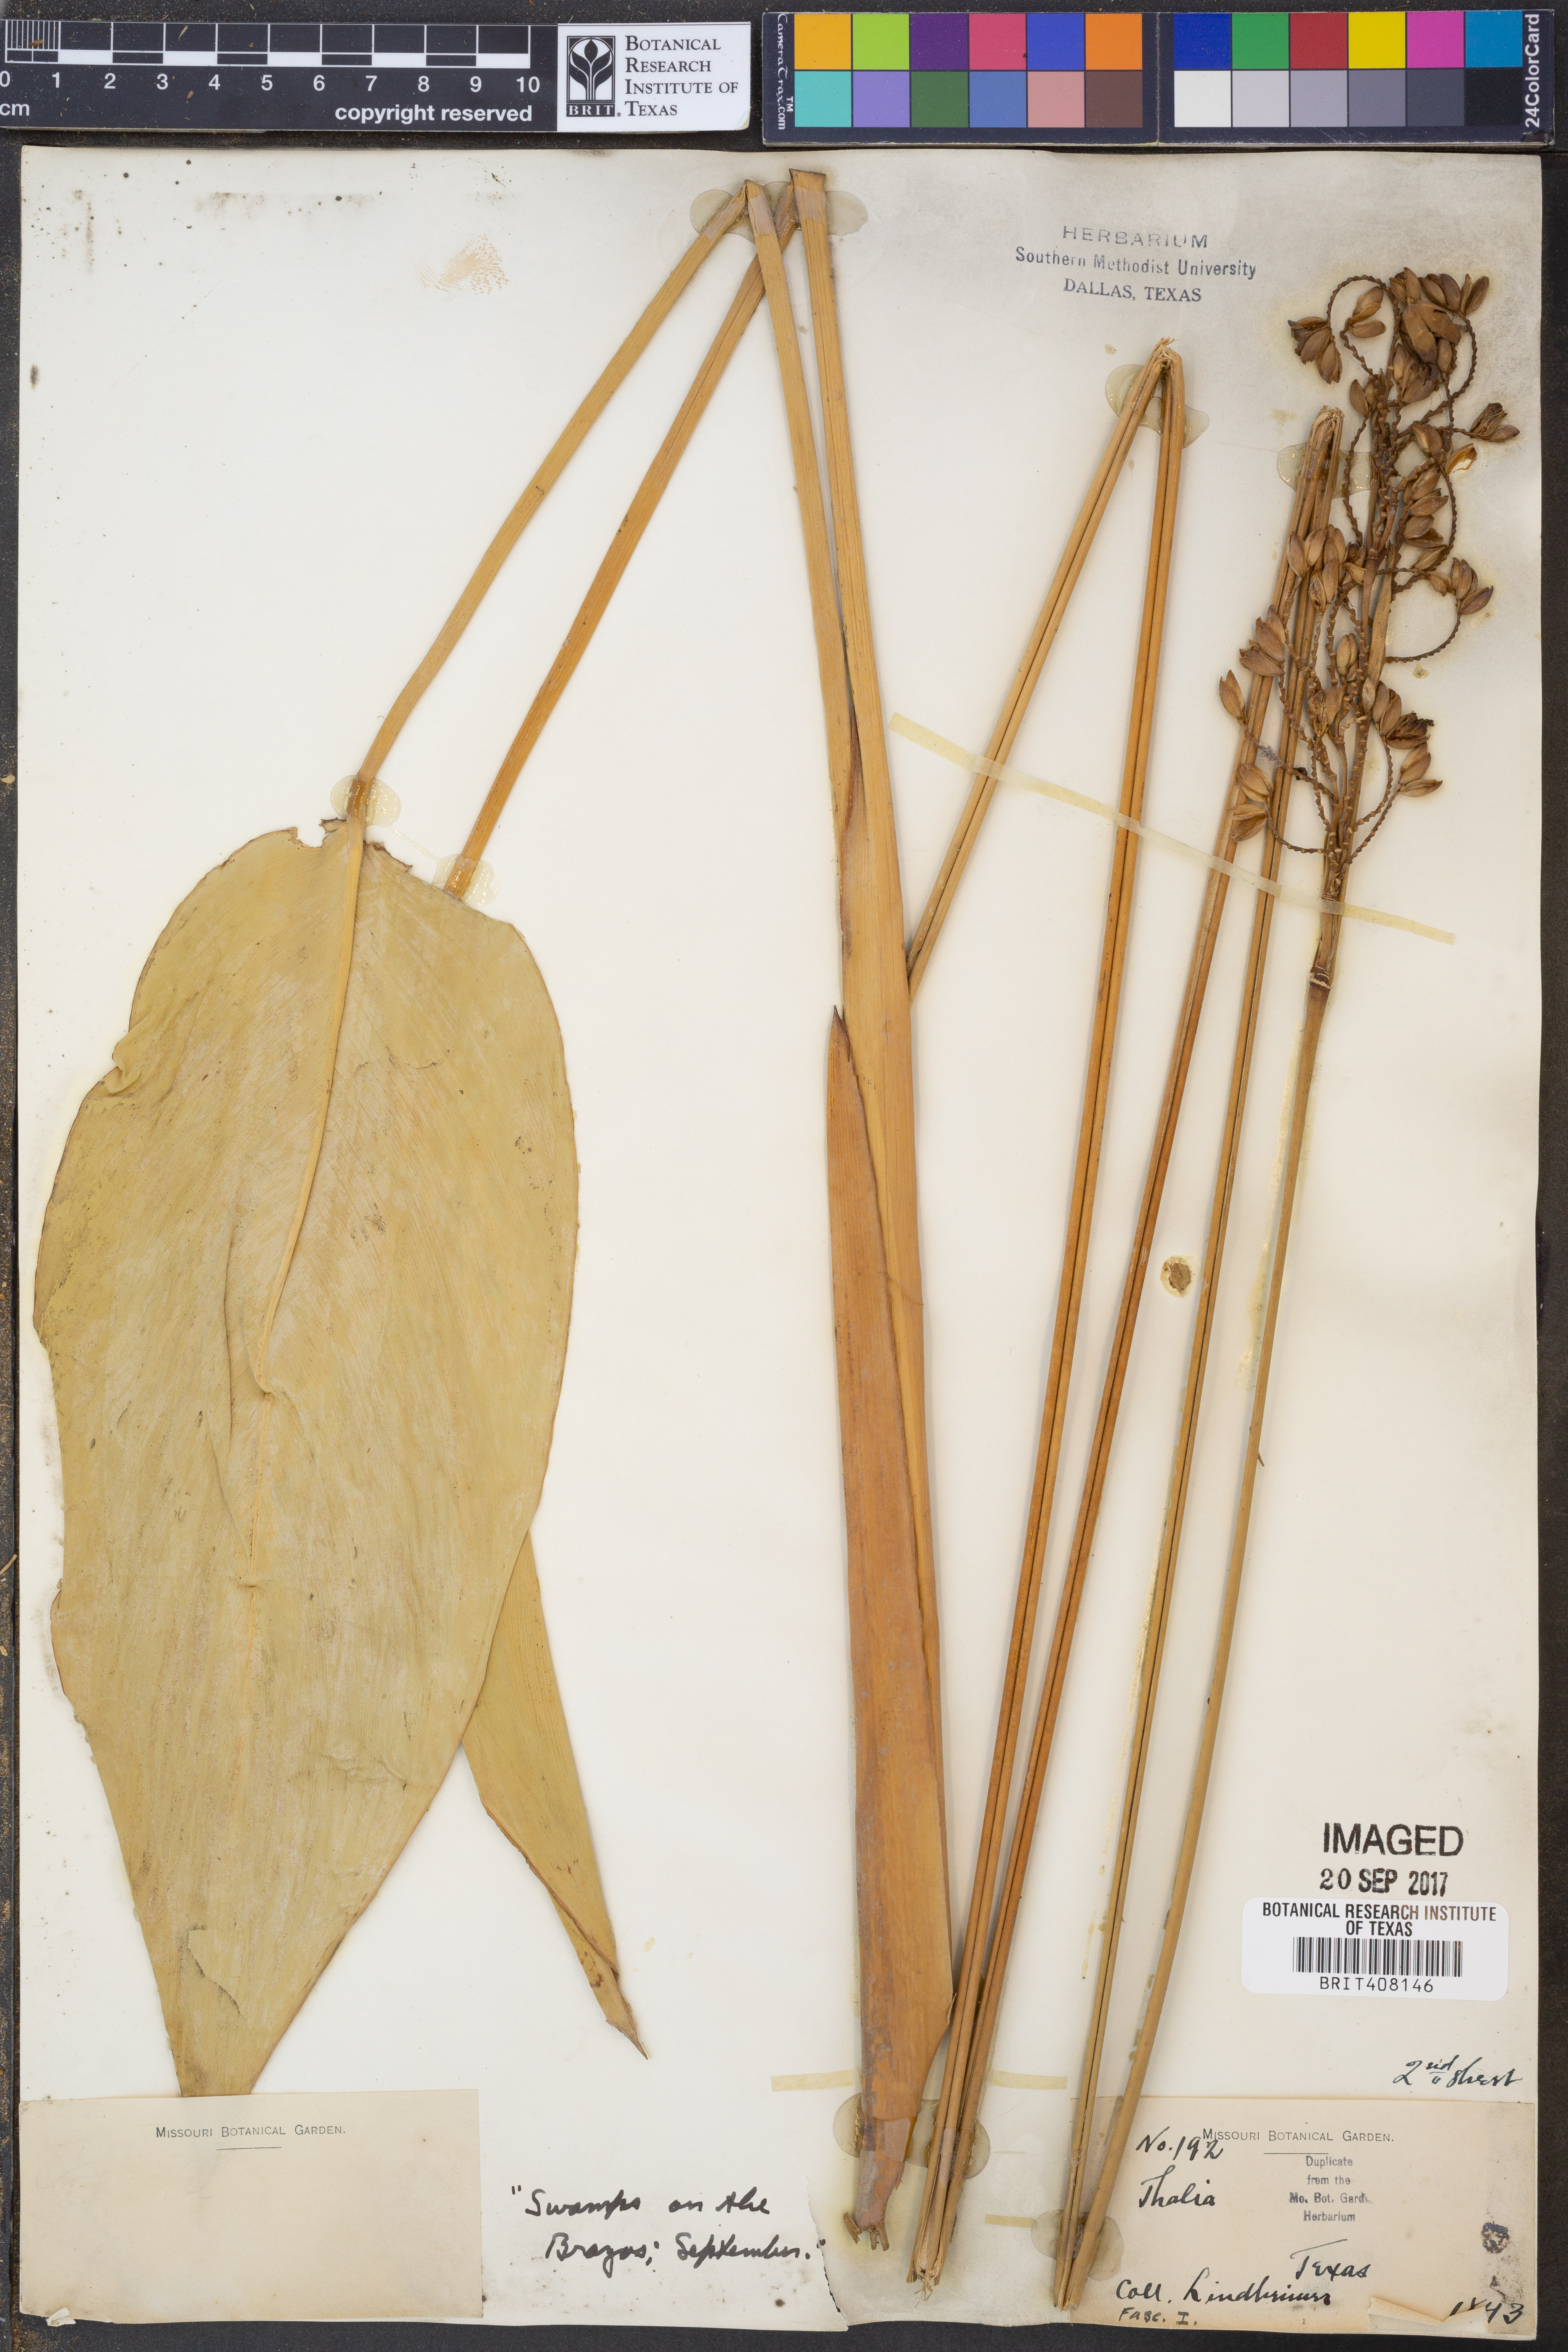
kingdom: Plantae
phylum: Tracheophyta
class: Liliopsida
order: Zingiberales
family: Marantaceae
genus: Thalia
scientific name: Thalia
